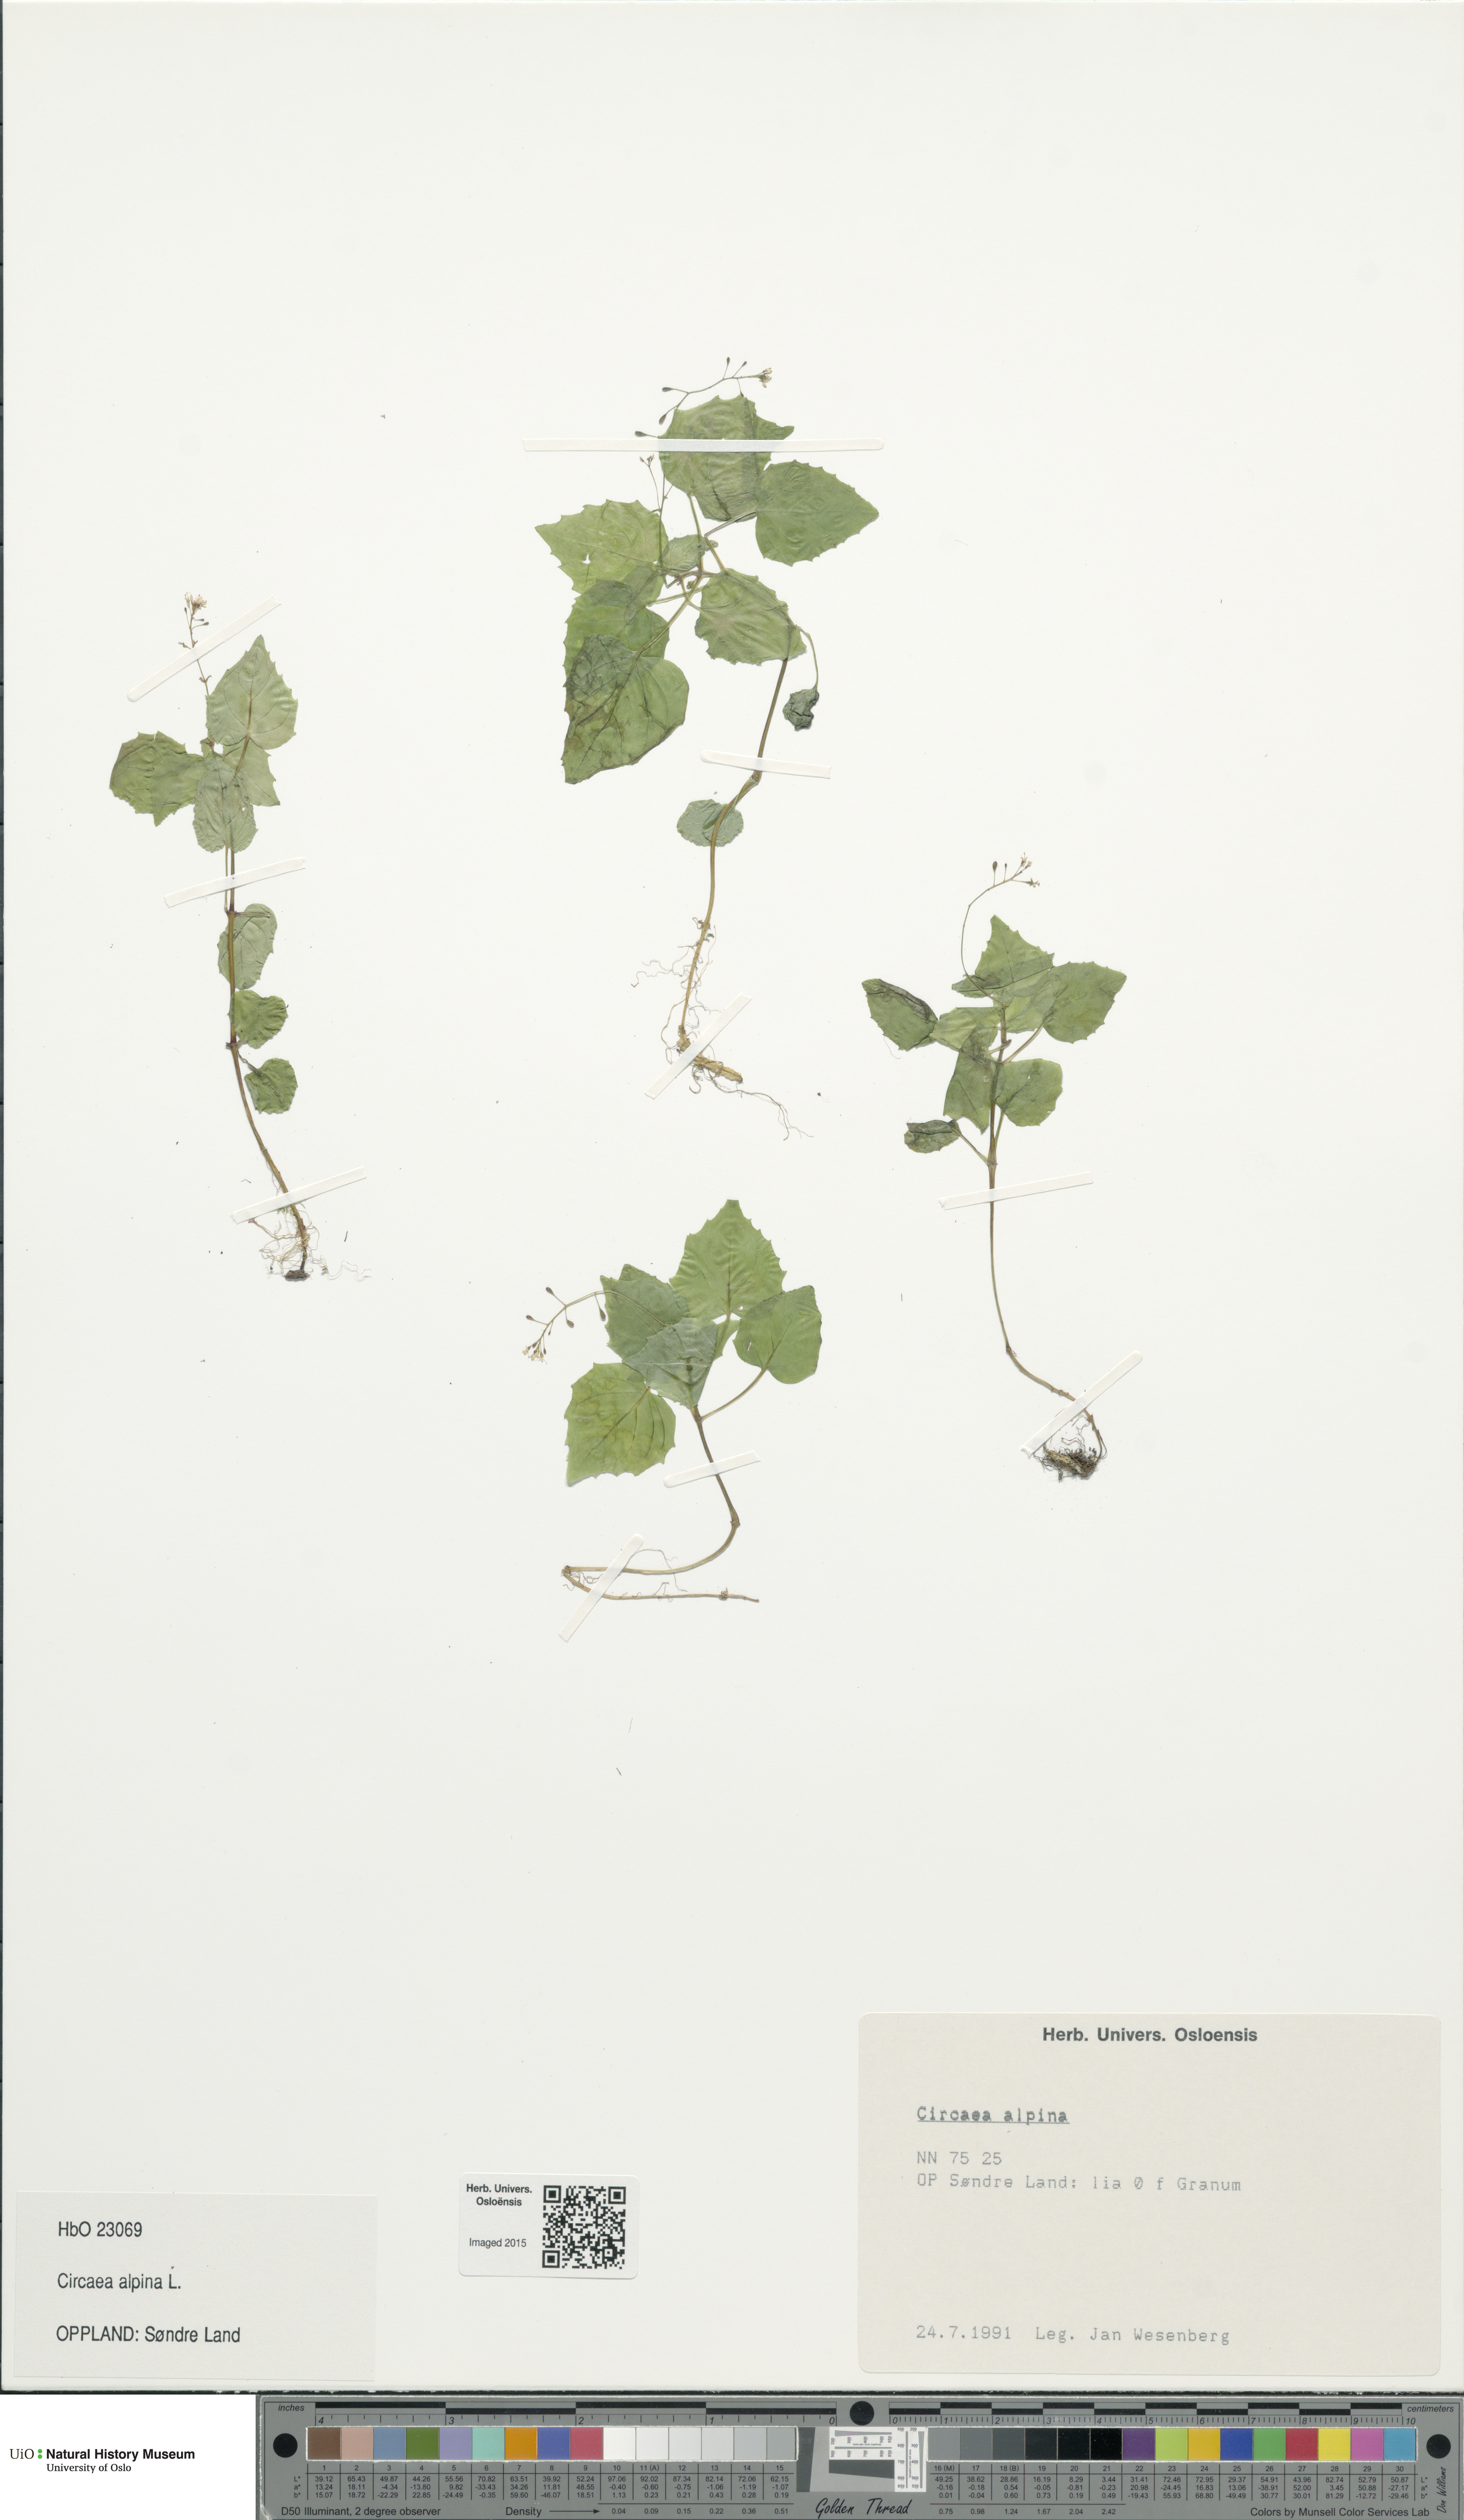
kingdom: Plantae
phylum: Tracheophyta
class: Magnoliopsida
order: Myrtales
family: Onagraceae
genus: Circaea
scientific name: Circaea alpina
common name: Alpine enchanter's-nightshade
